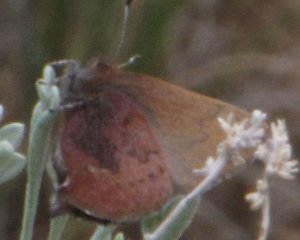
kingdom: Animalia
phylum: Arthropoda
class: Insecta
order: Lepidoptera
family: Lycaenidae
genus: Incisalia
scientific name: Incisalia irioides
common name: Brown Elfin
